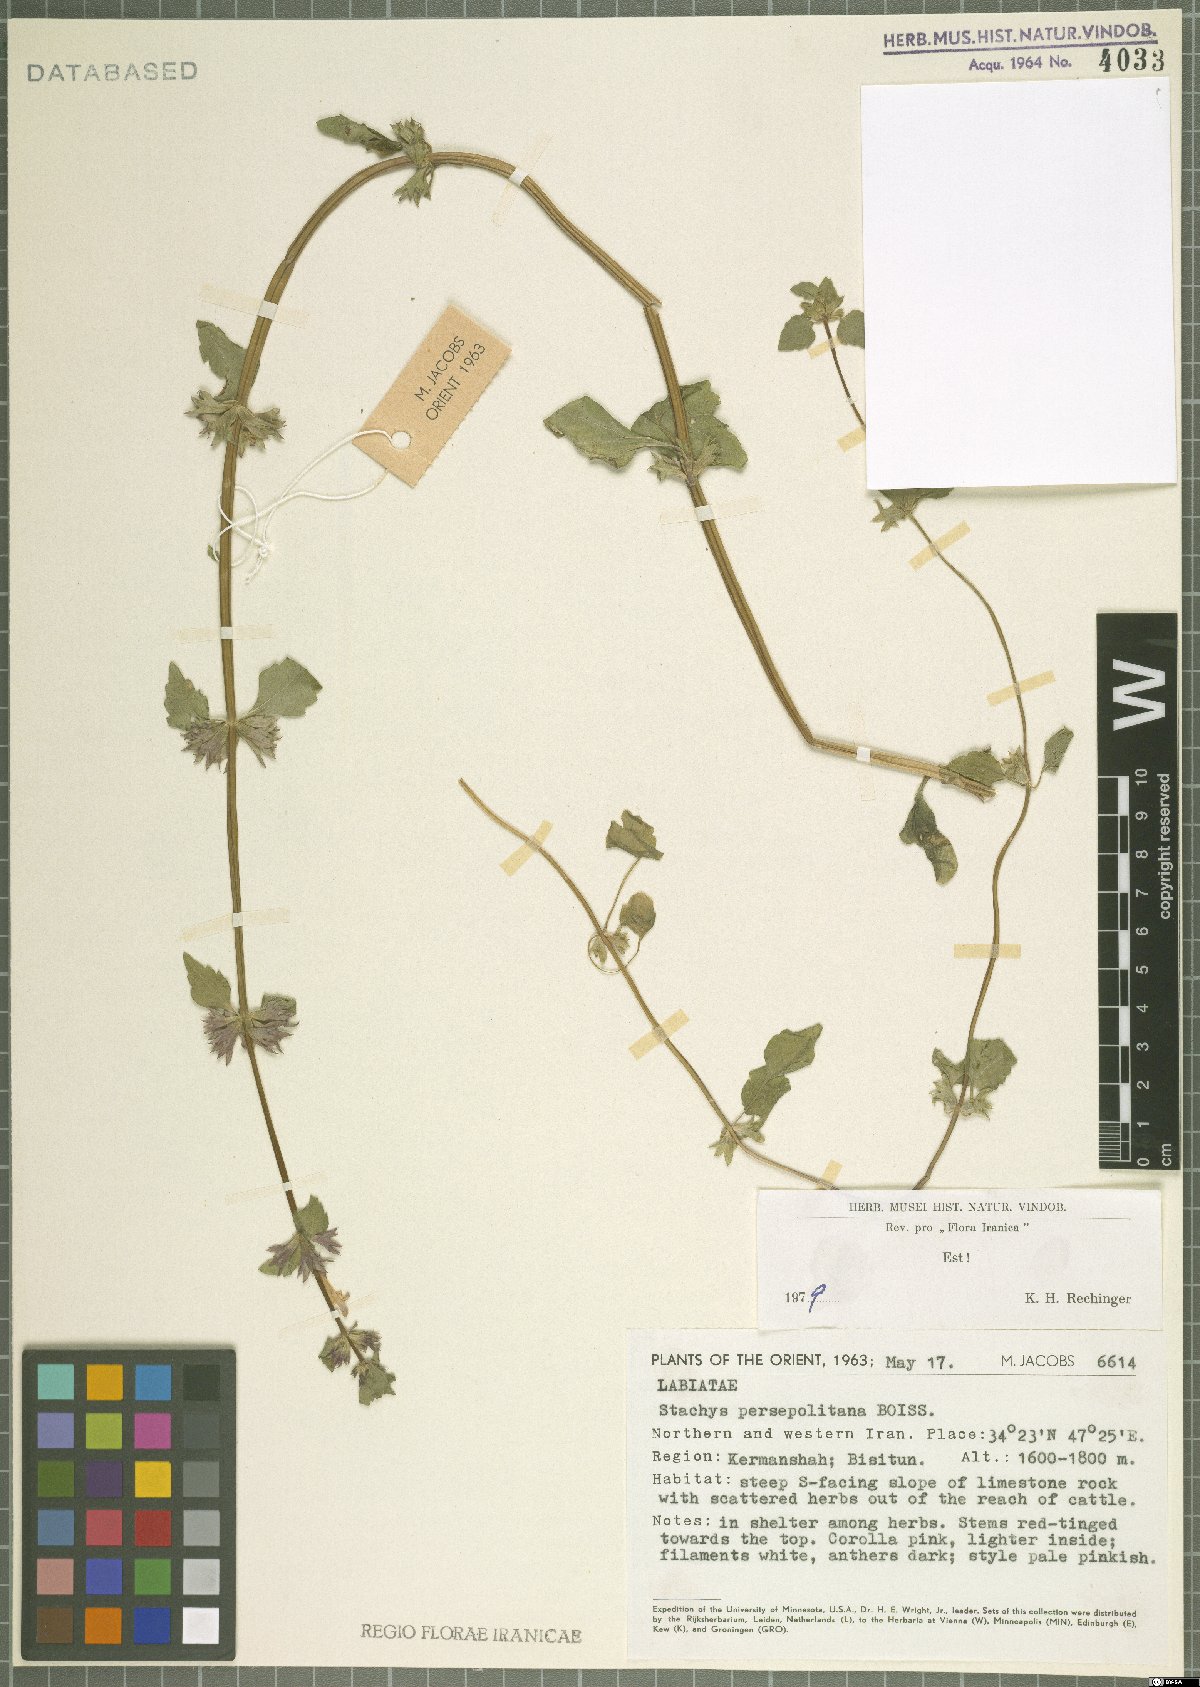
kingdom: Plantae
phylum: Tracheophyta
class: Magnoliopsida
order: Lamiales
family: Lamiaceae
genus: Lamium
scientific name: Lamium persepolitanum
